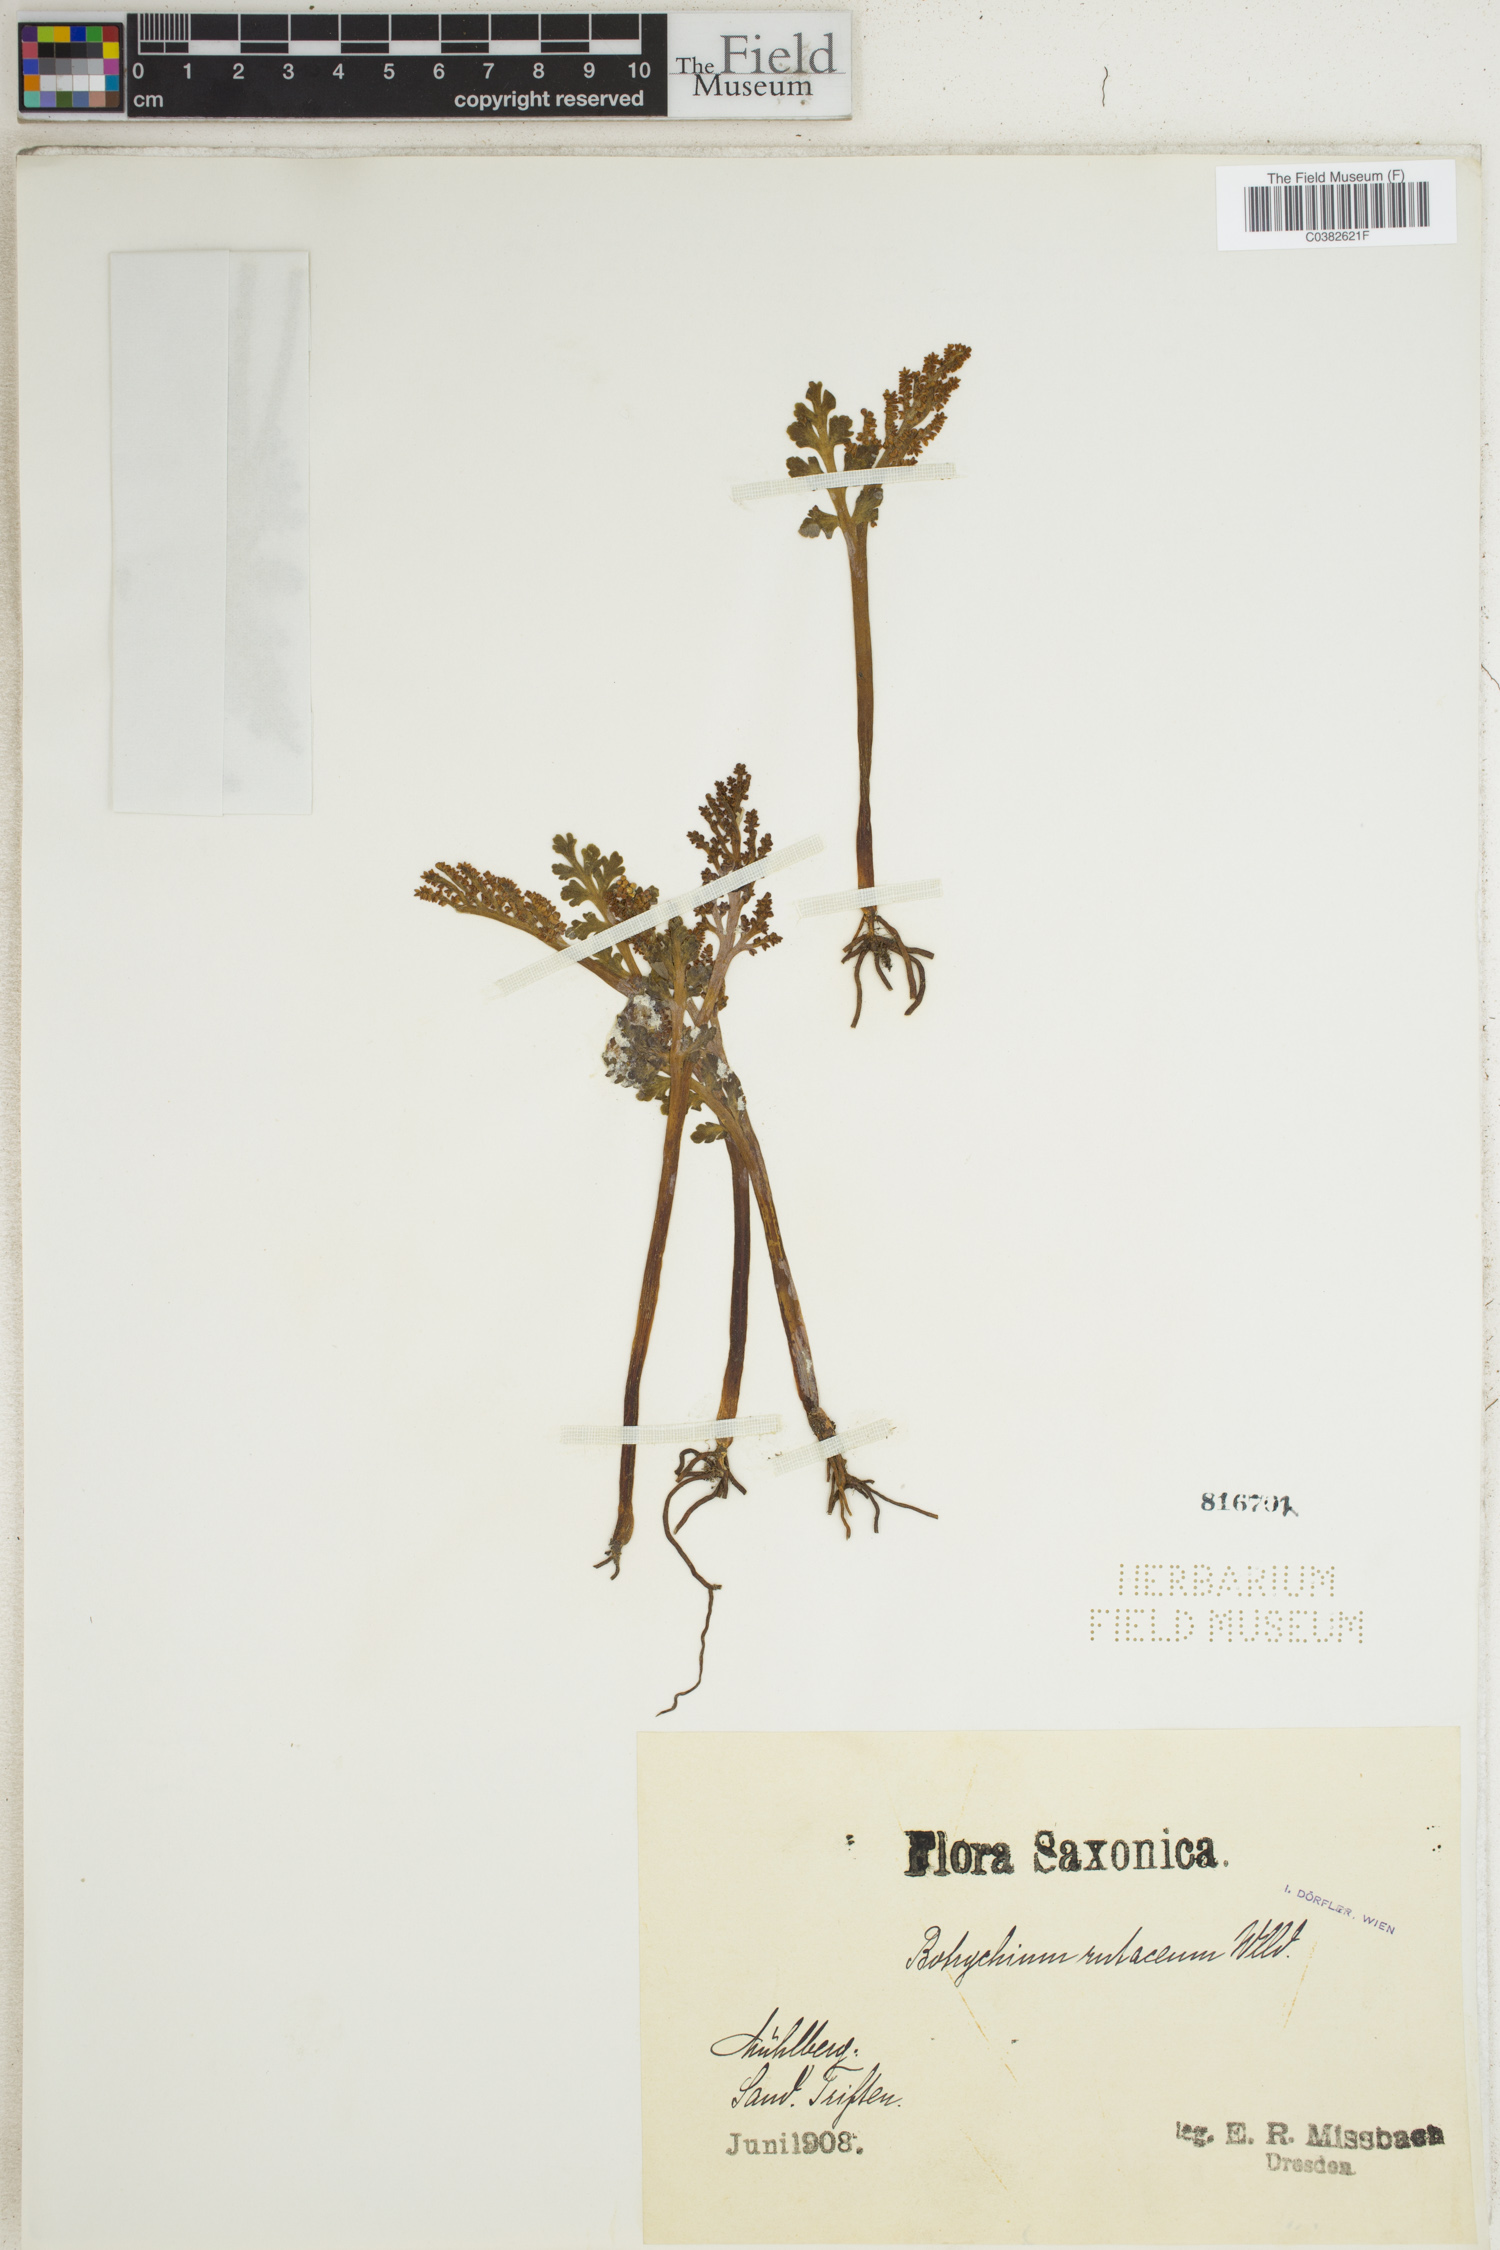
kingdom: Plantae
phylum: Tracheophyta
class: Polypodiopsida
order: Ophioglossales
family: Ophioglossaceae
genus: Botrychium
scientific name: Botrychium matricariifolium
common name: Branched moonwort
